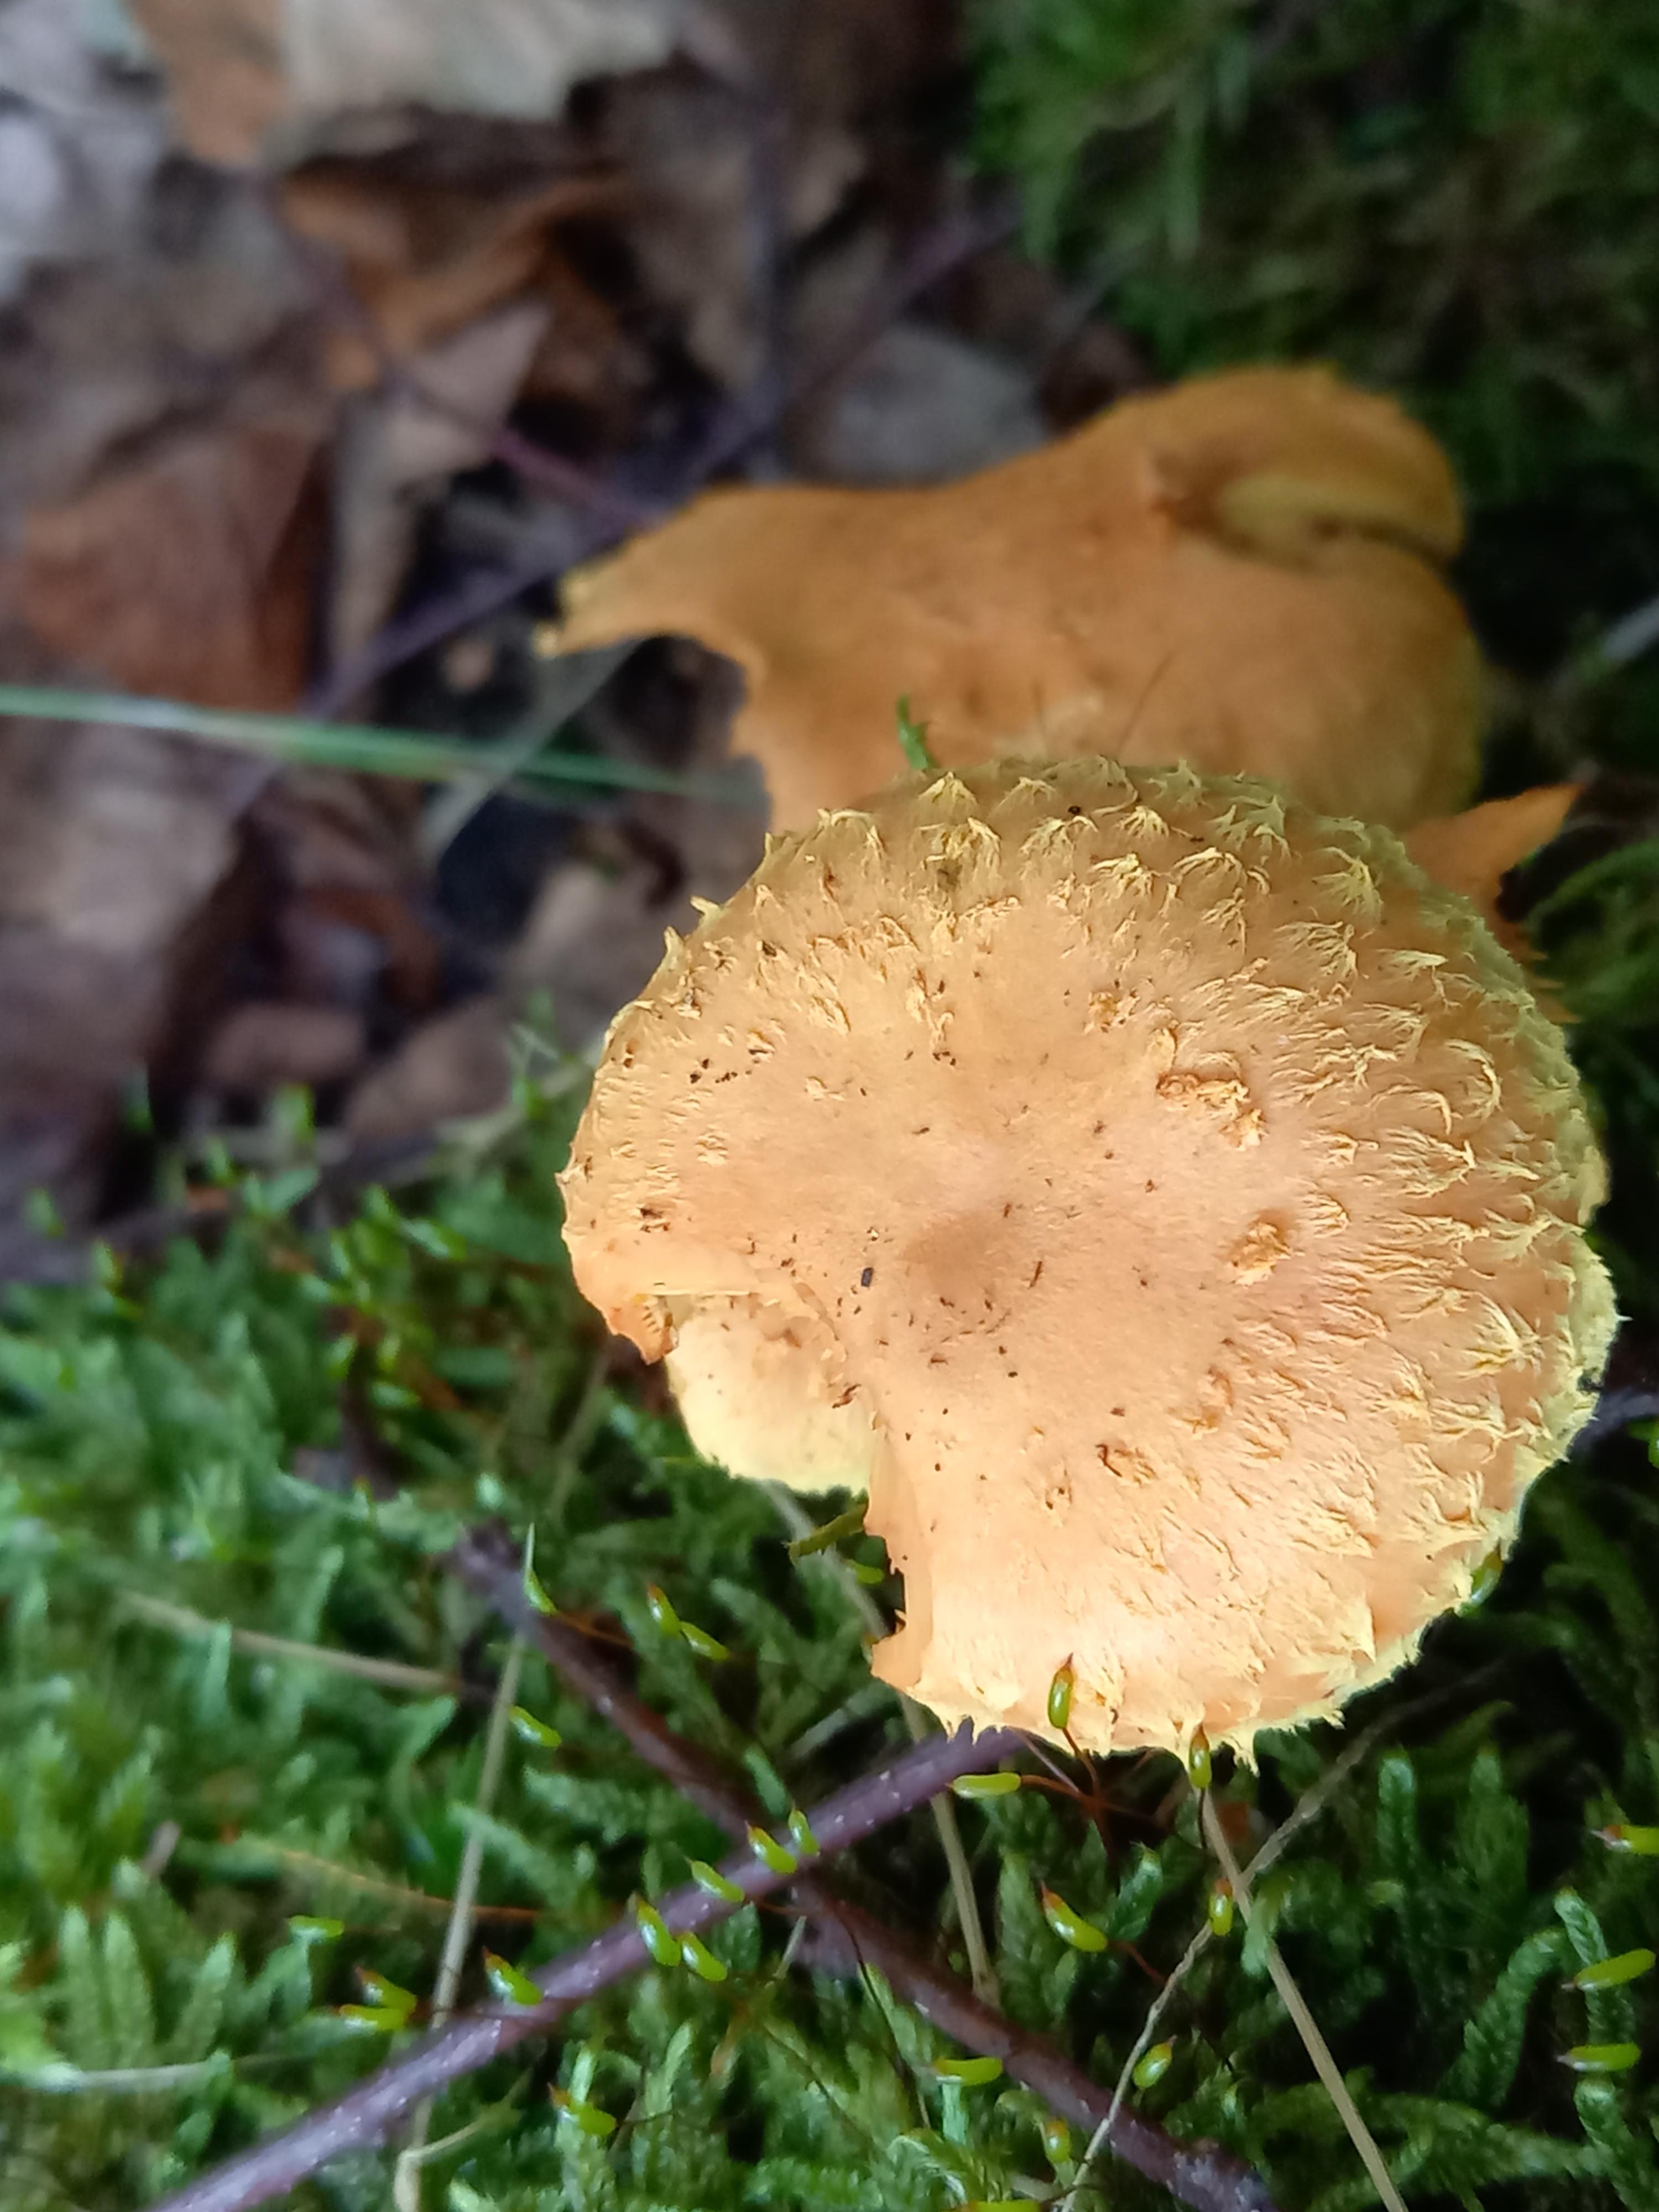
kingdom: Fungi
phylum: Basidiomycota
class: Agaricomycetes
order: Agaricales
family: Strophariaceae
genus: Pholiota
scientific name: Pholiota flammans
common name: flamme-skælhat
